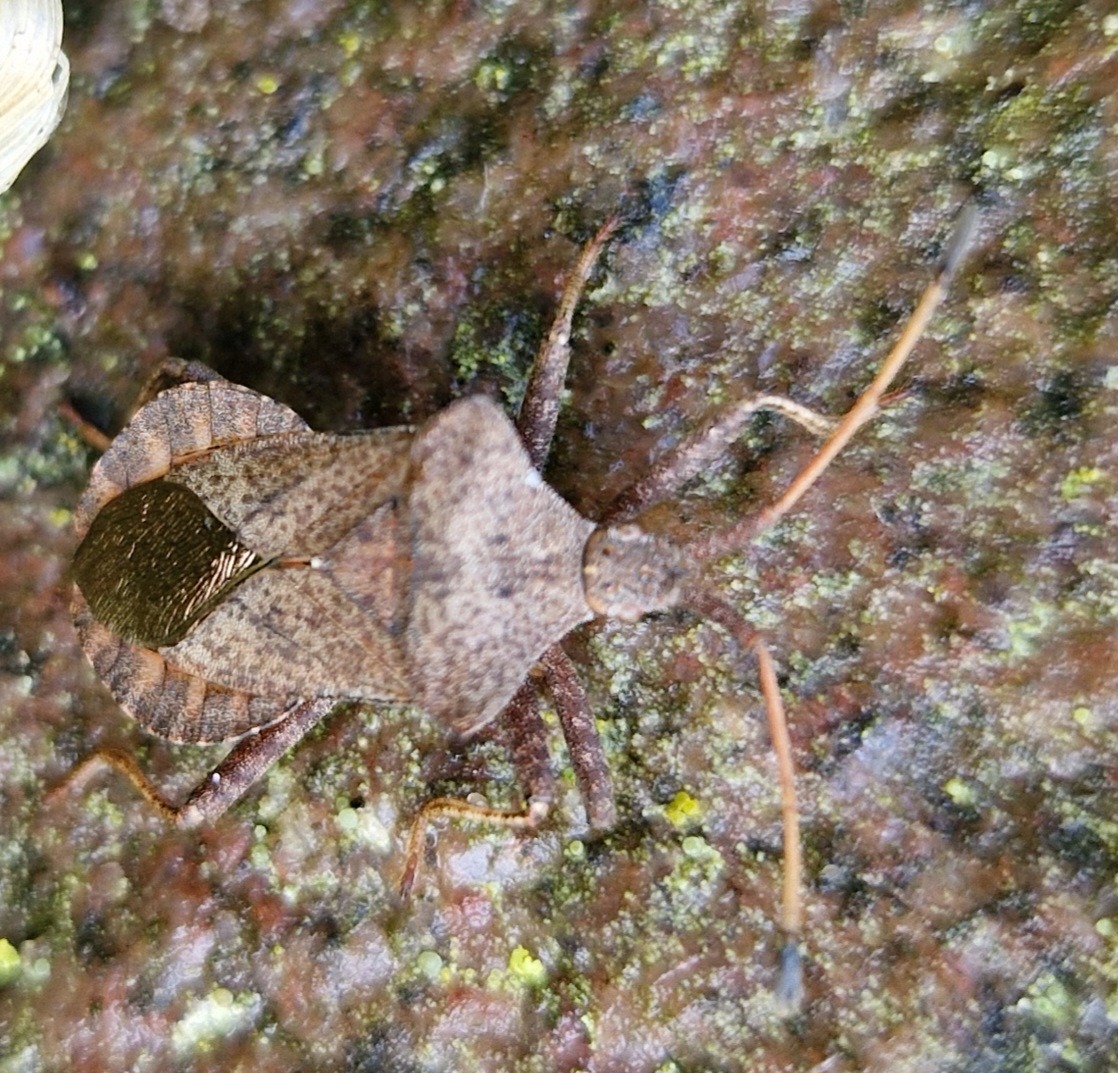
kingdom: Animalia
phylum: Arthropoda
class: Insecta
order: Hemiptera
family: Coreidae
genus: Coreus
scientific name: Coreus marginatus
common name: Skræppetæge
